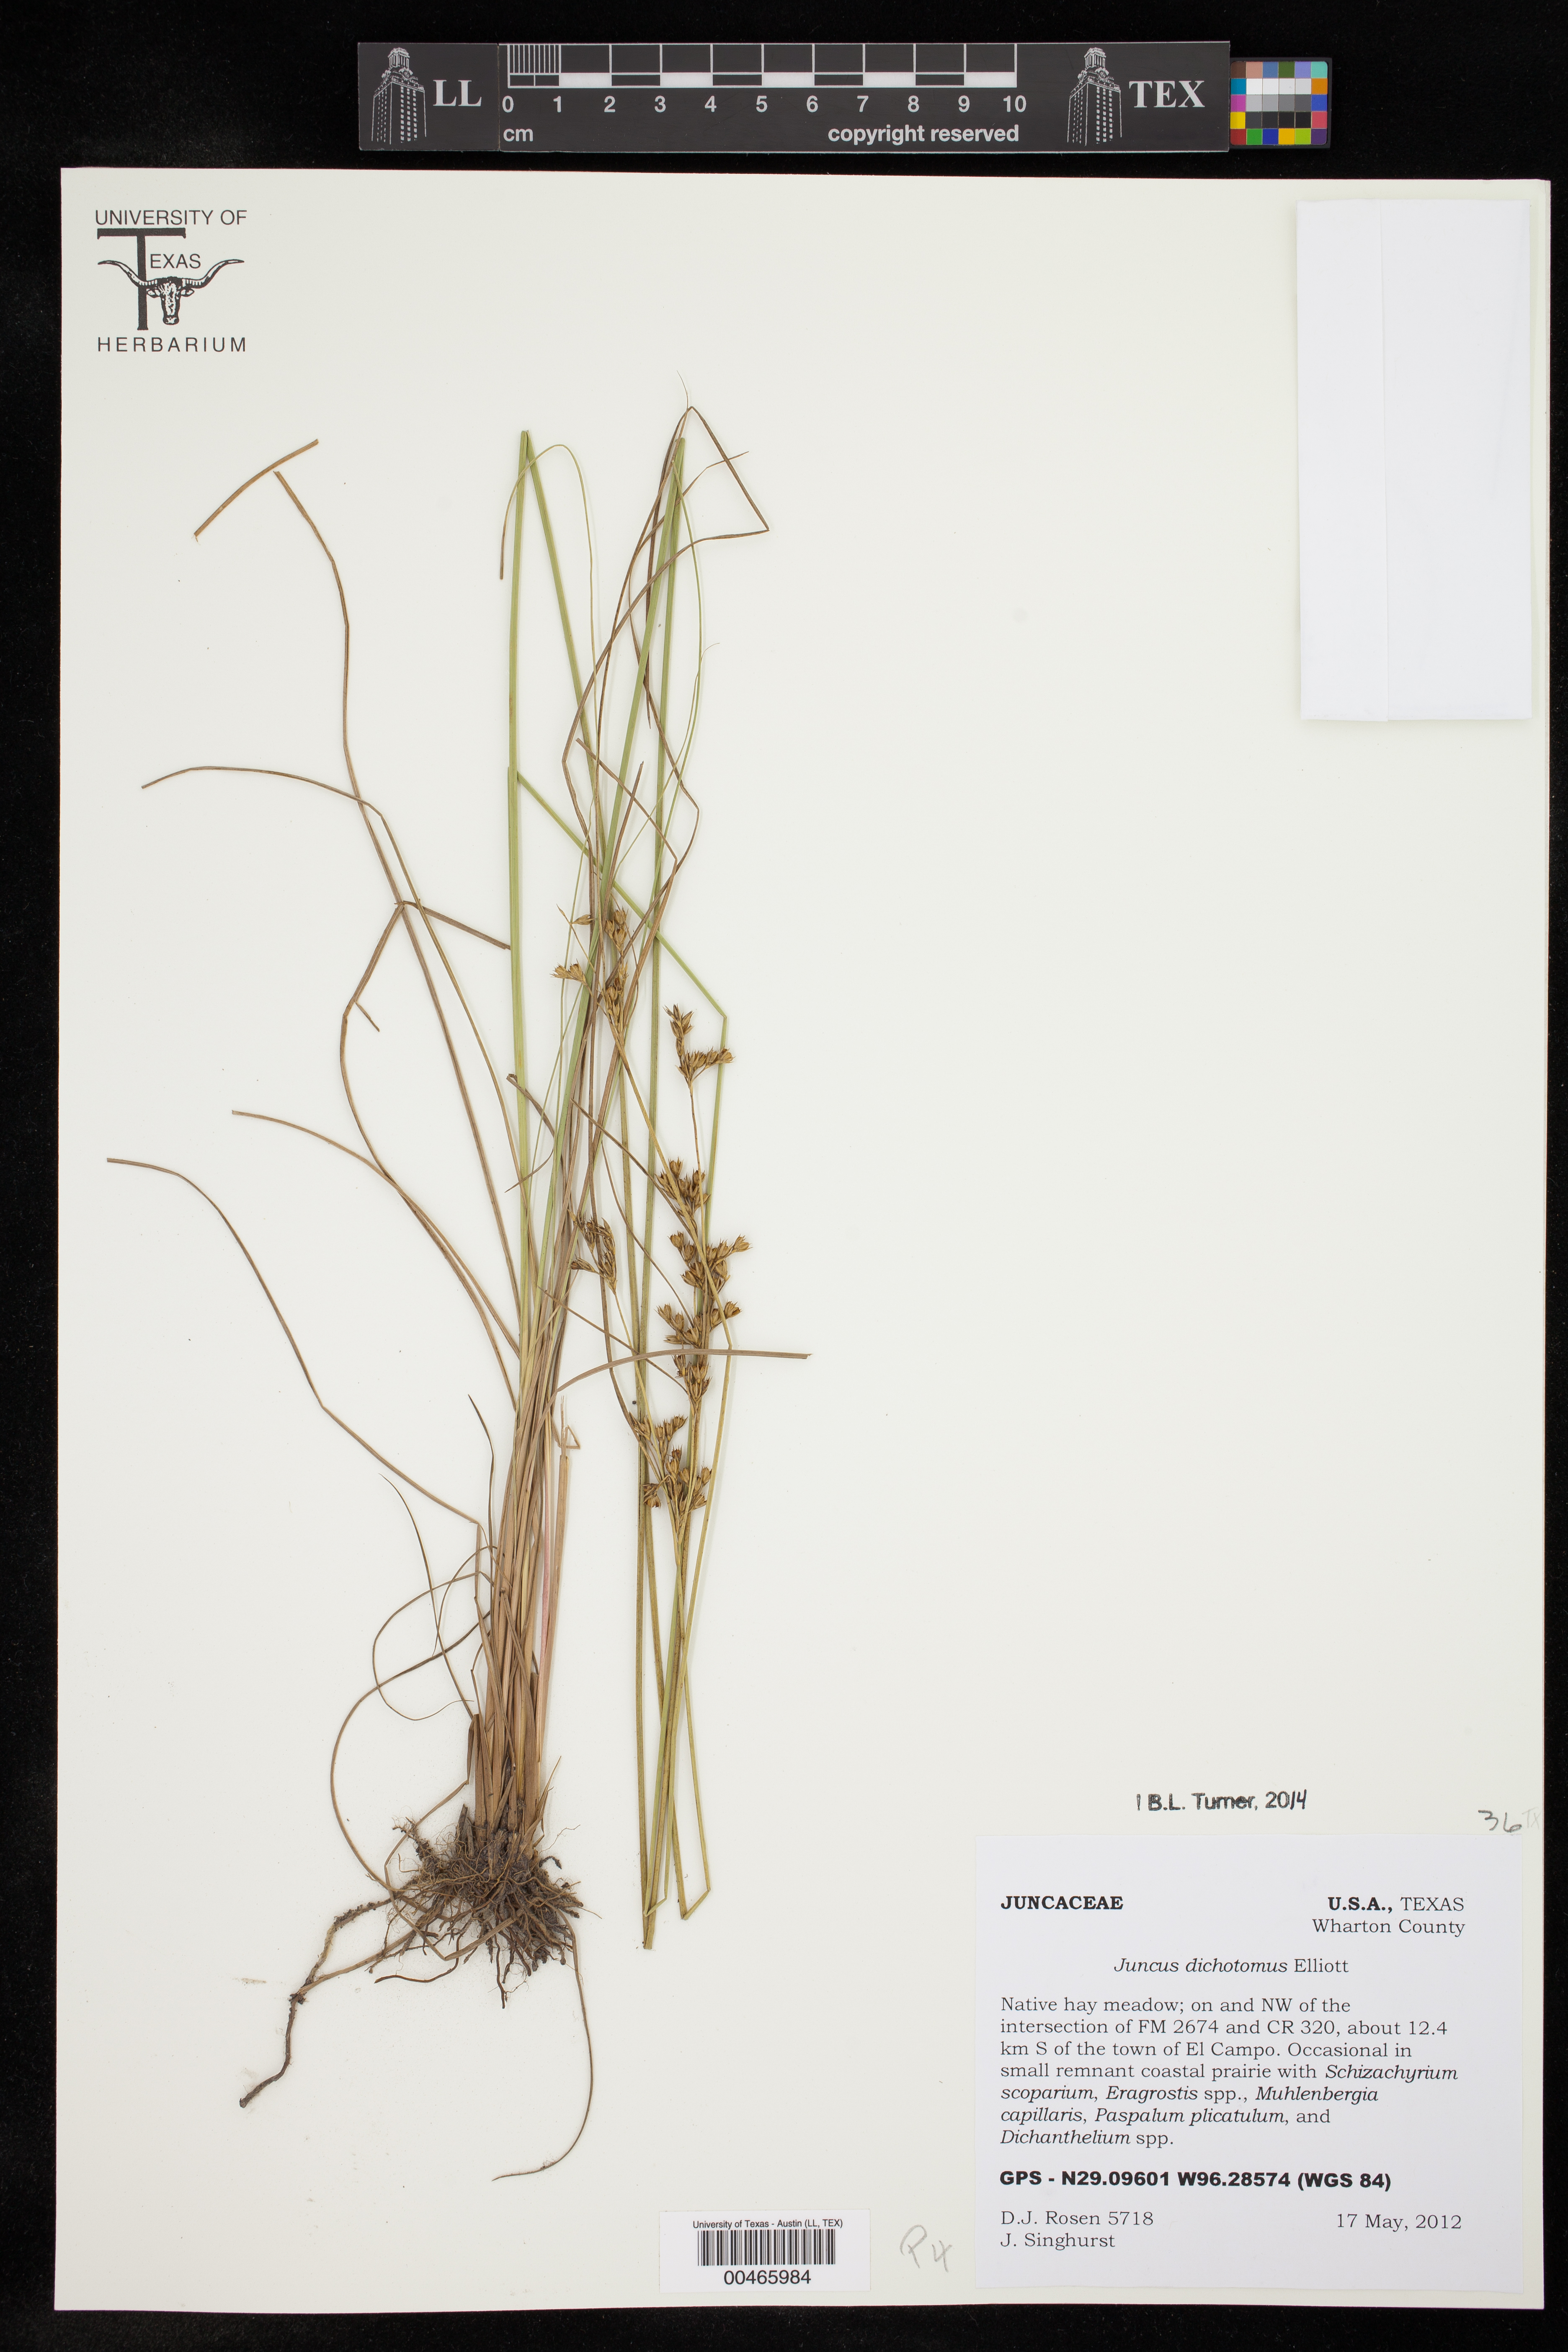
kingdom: Plantae
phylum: Tracheophyta
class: Liliopsida
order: Poales
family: Juncaceae
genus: Juncus
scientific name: Juncus dichotomus
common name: Forked rush
